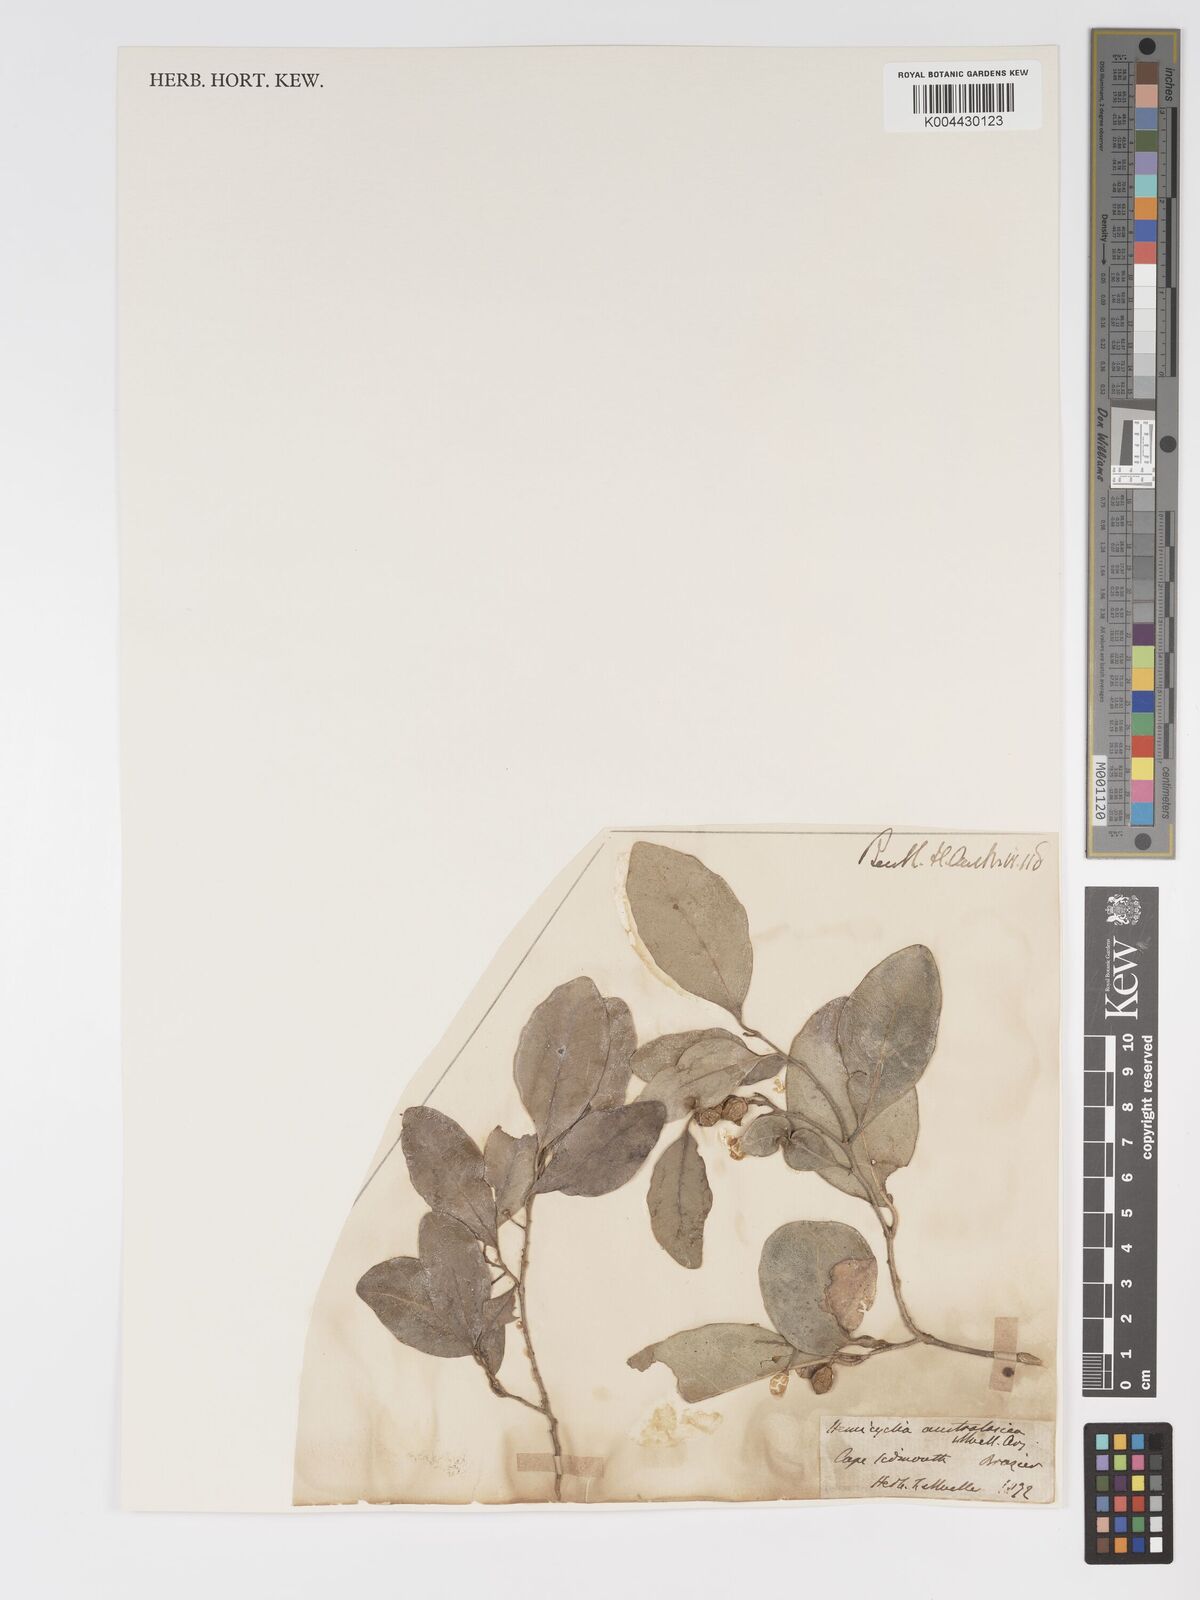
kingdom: Plantae
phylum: Tracheophyta
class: Magnoliopsida
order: Malpighiales
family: Putranjivaceae
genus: Drypetes
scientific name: Drypetes deplanchei
